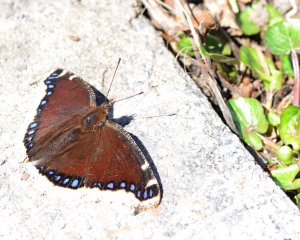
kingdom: Animalia
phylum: Arthropoda
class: Insecta
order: Lepidoptera
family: Nymphalidae
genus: Nymphalis
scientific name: Nymphalis antiopa
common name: Mourning Cloak
